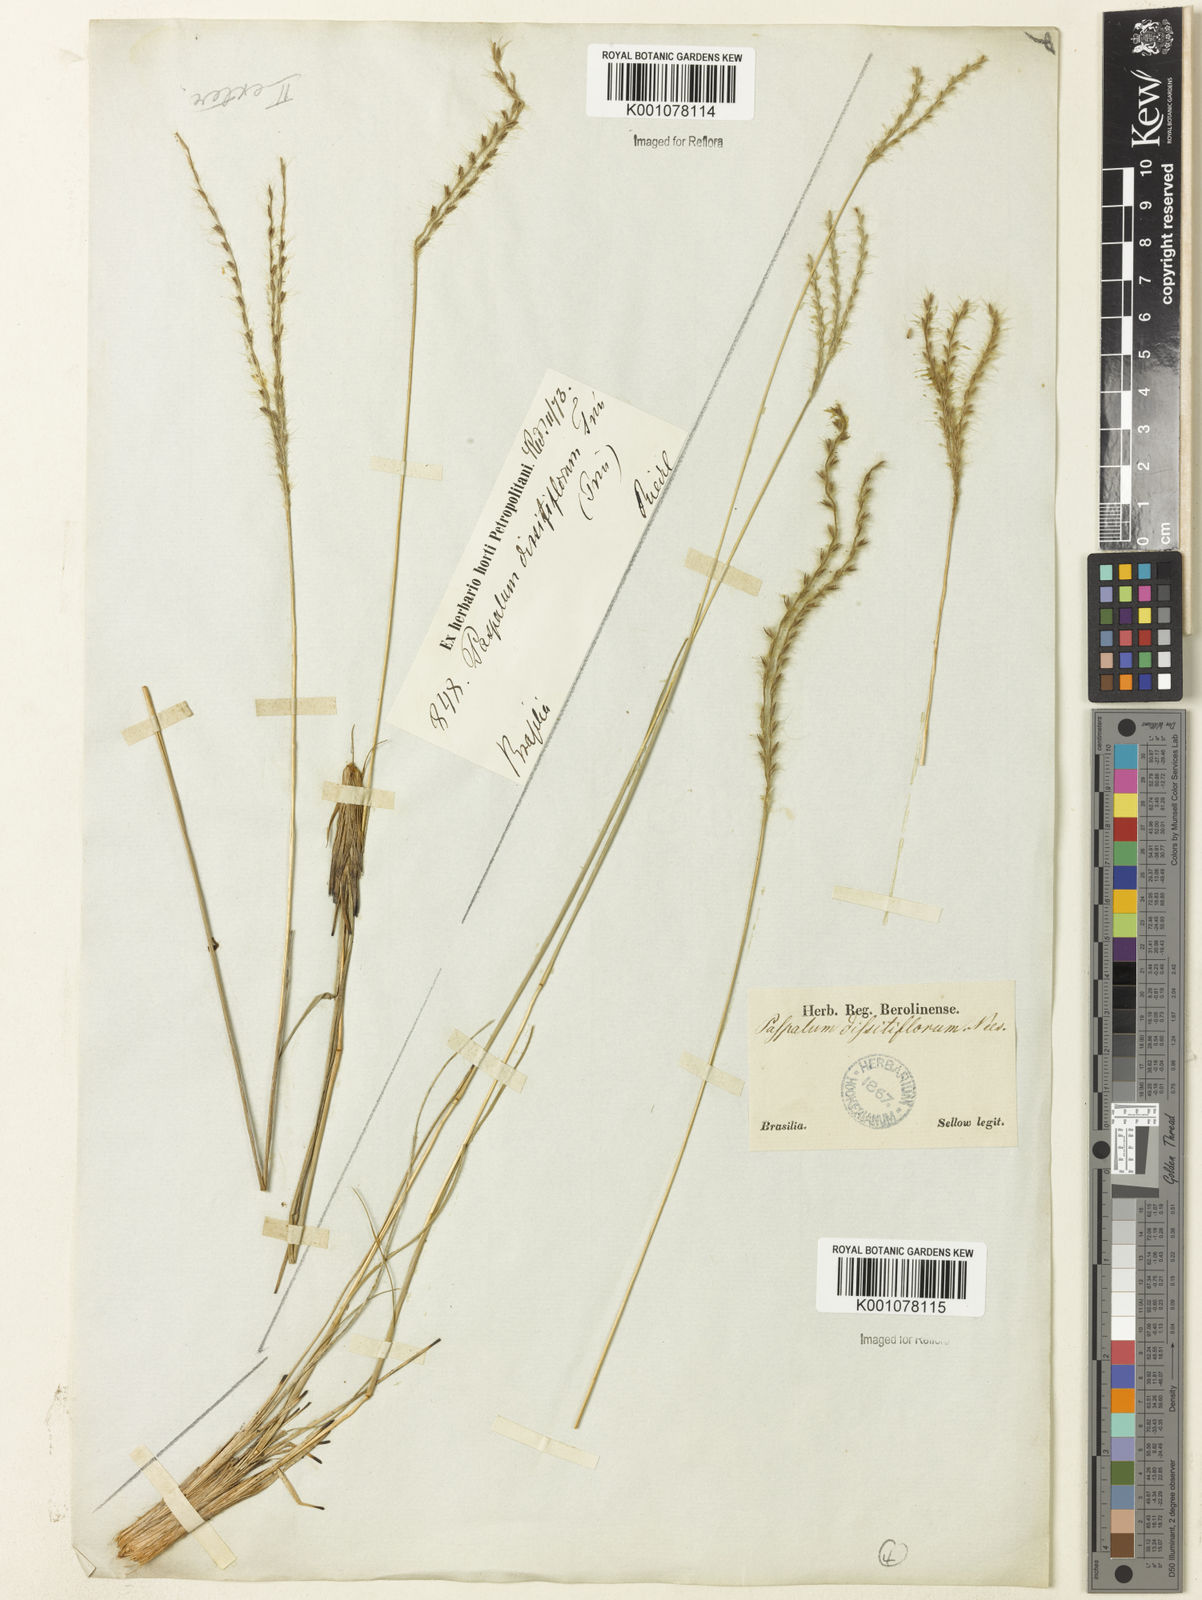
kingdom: Plantae
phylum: Tracheophyta
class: Liliopsida
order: Poales
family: Poaceae
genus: Axonopus
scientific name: Axonopus brasiliensis
